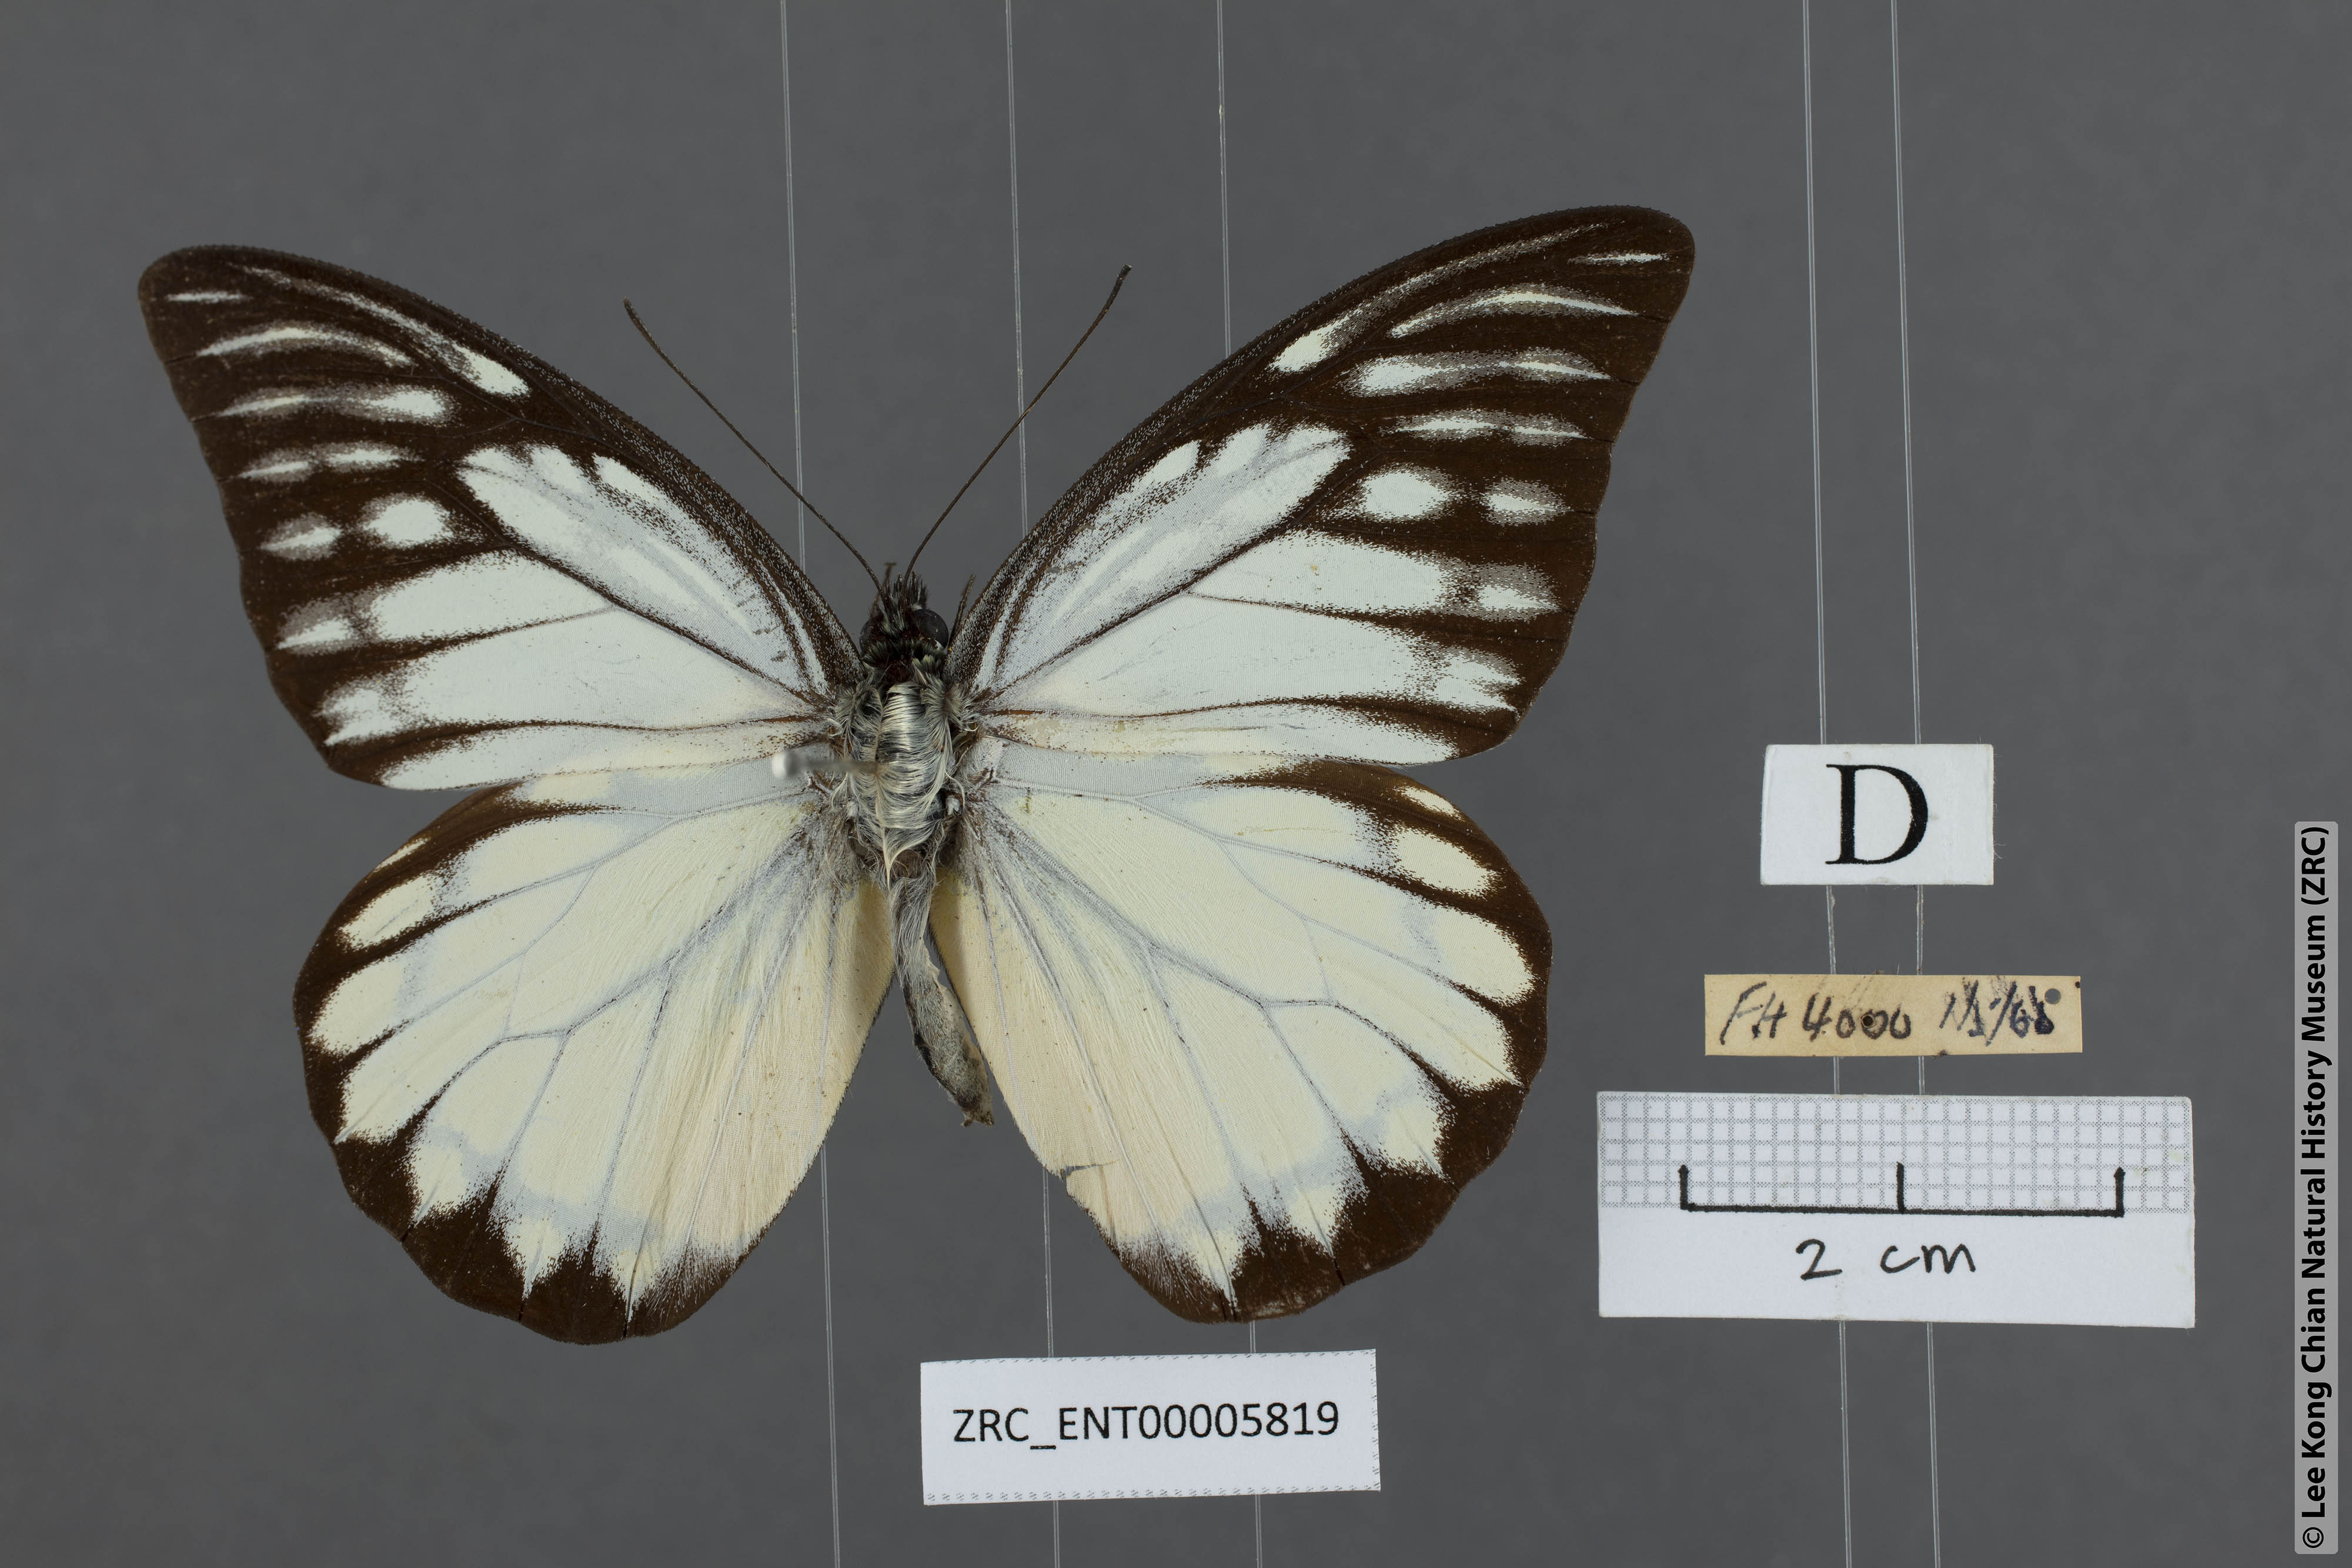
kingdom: Animalia
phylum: Arthropoda
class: Insecta
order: Lepidoptera
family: Pieridae
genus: Prioneris
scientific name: Prioneris thestylis
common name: Spotted sawtooth
